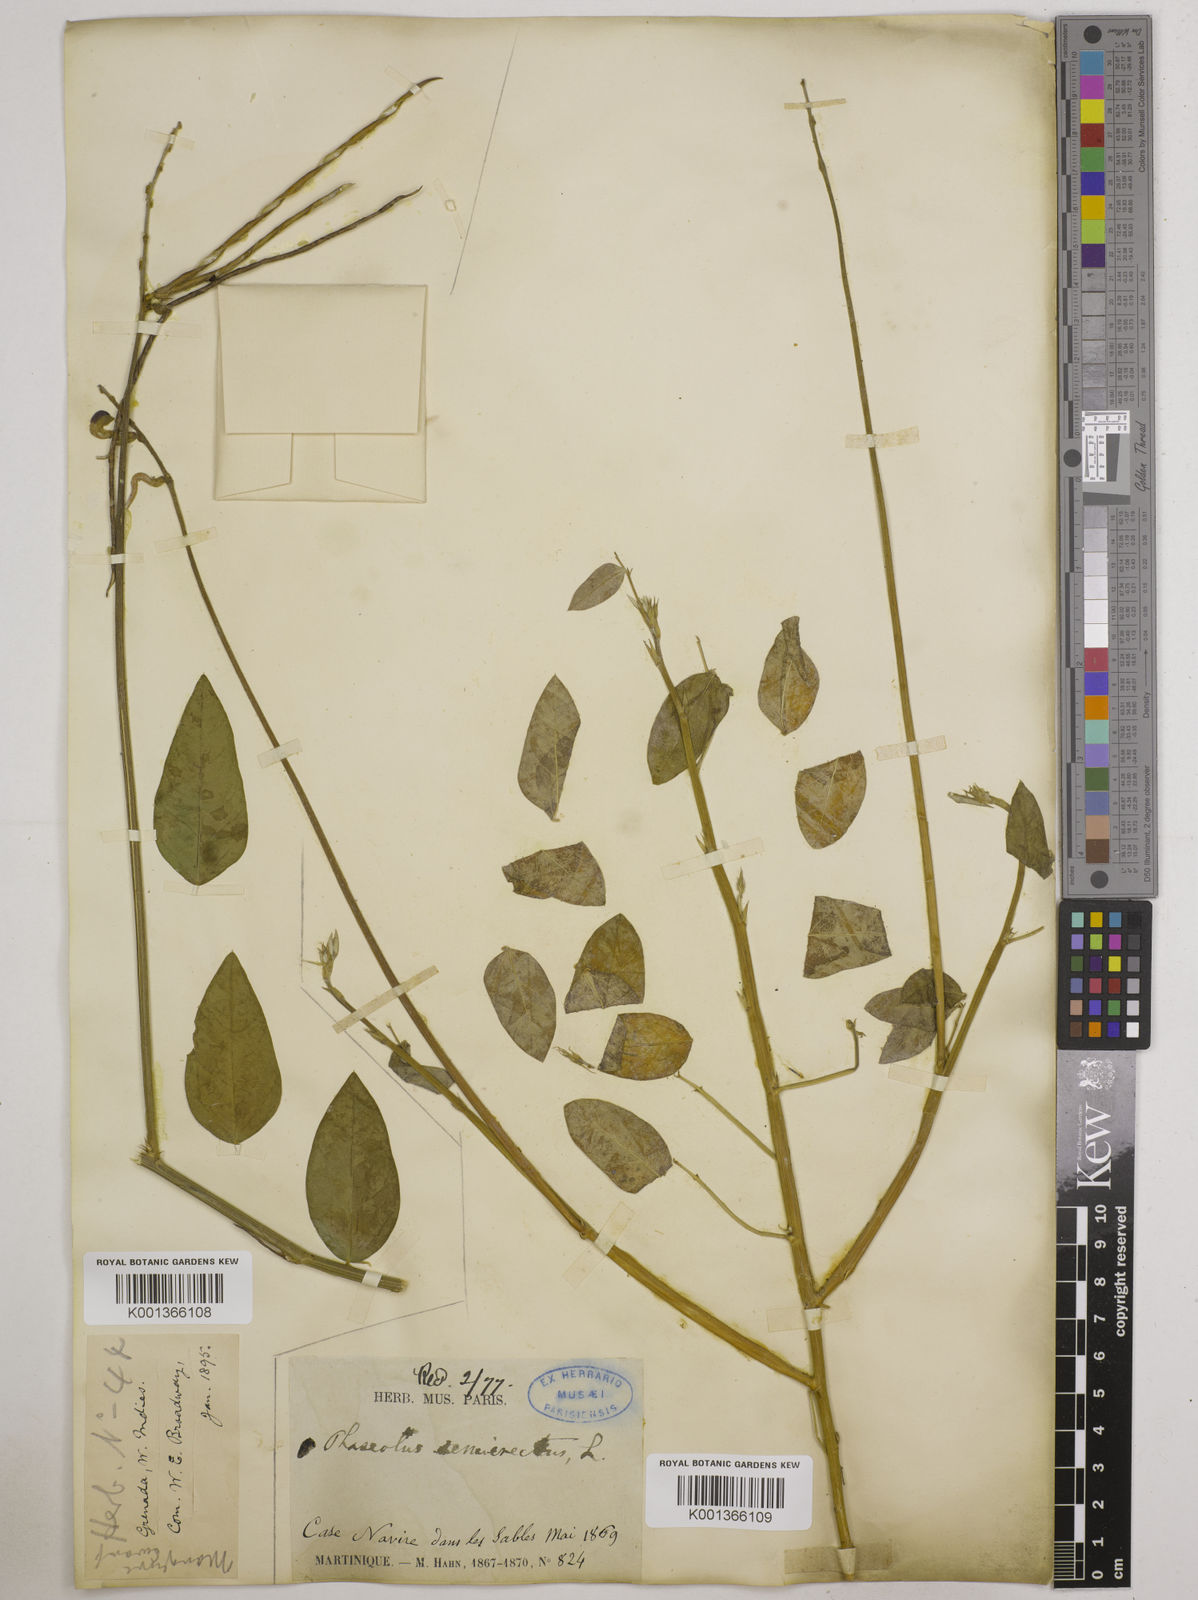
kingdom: Plantae
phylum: Tracheophyta
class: Magnoliopsida
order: Fabales
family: Fabaceae
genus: Macroptilium
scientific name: Macroptilium lathyroides
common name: Wild bushbean
